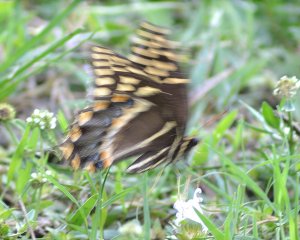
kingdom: Animalia
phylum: Arthropoda
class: Insecta
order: Lepidoptera
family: Papilionidae
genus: Pterourus
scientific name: Pterourus palamedes
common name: Palamedes Swallowtail
